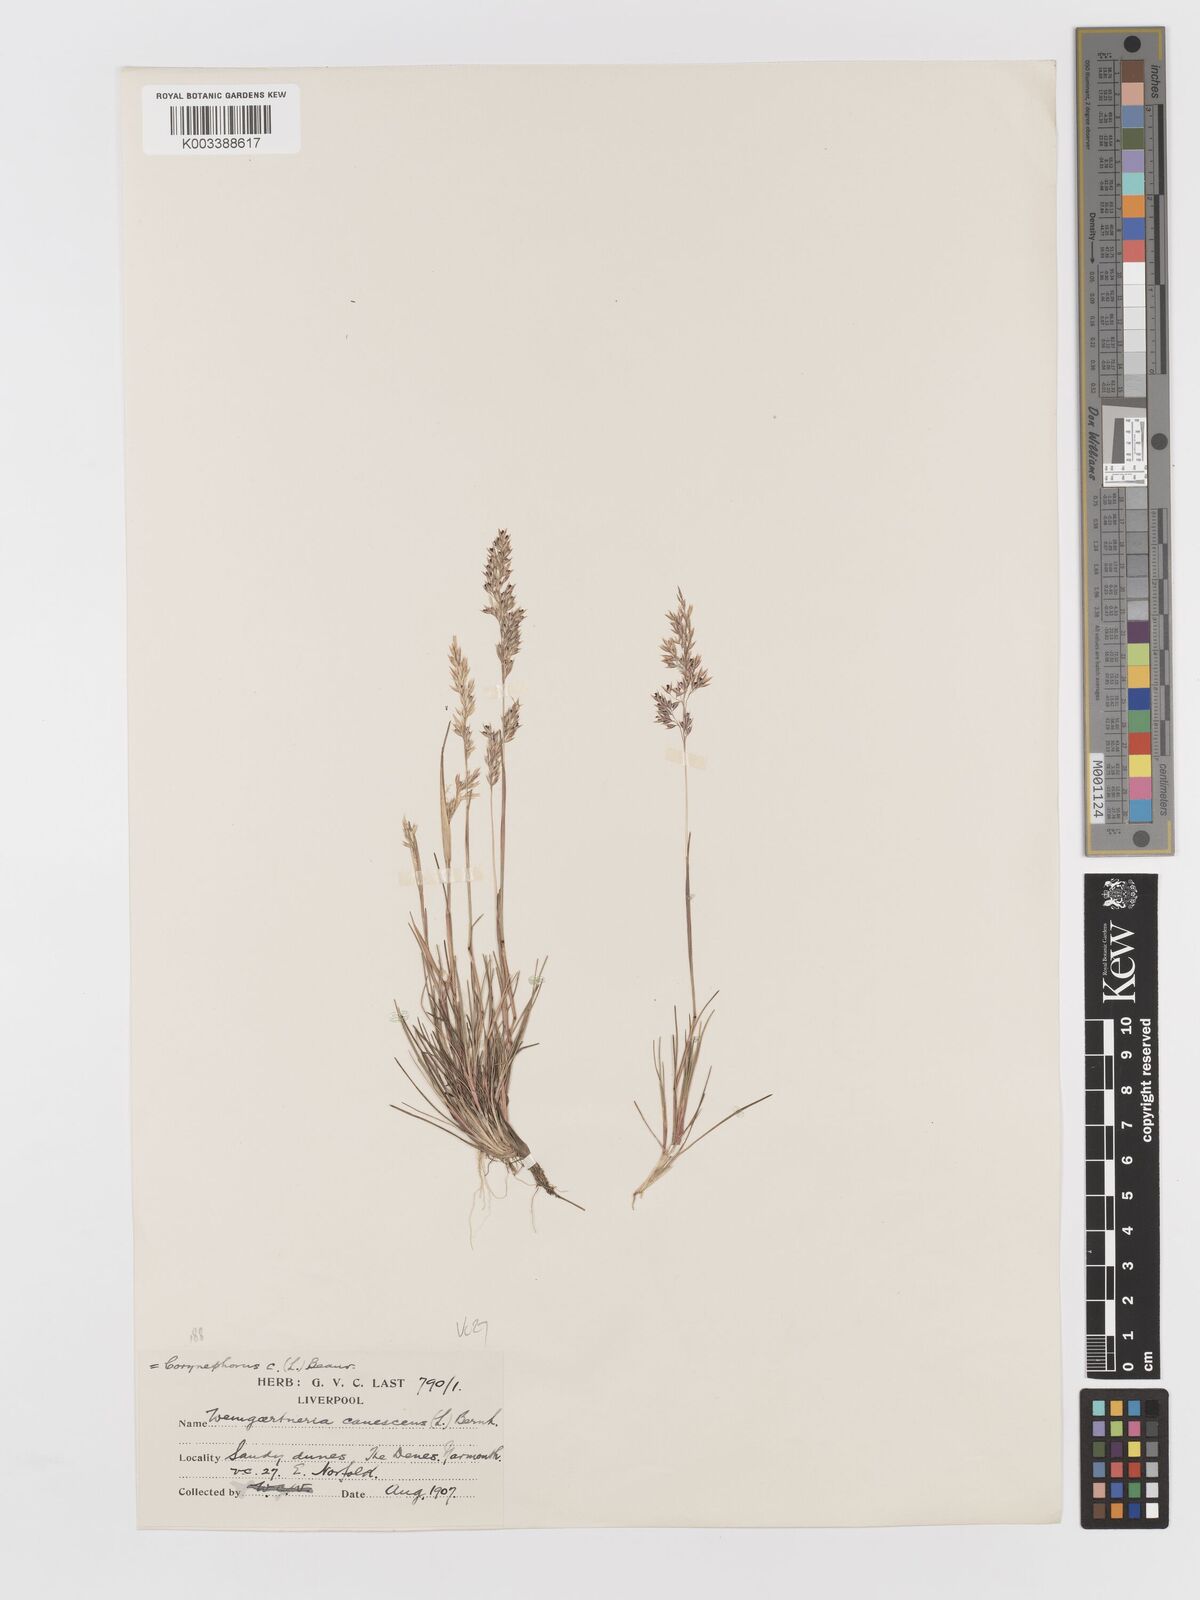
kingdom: Plantae
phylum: Tracheophyta
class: Liliopsida
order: Poales
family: Poaceae
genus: Corynephorus
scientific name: Corynephorus canescens
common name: Grey hair-grass
